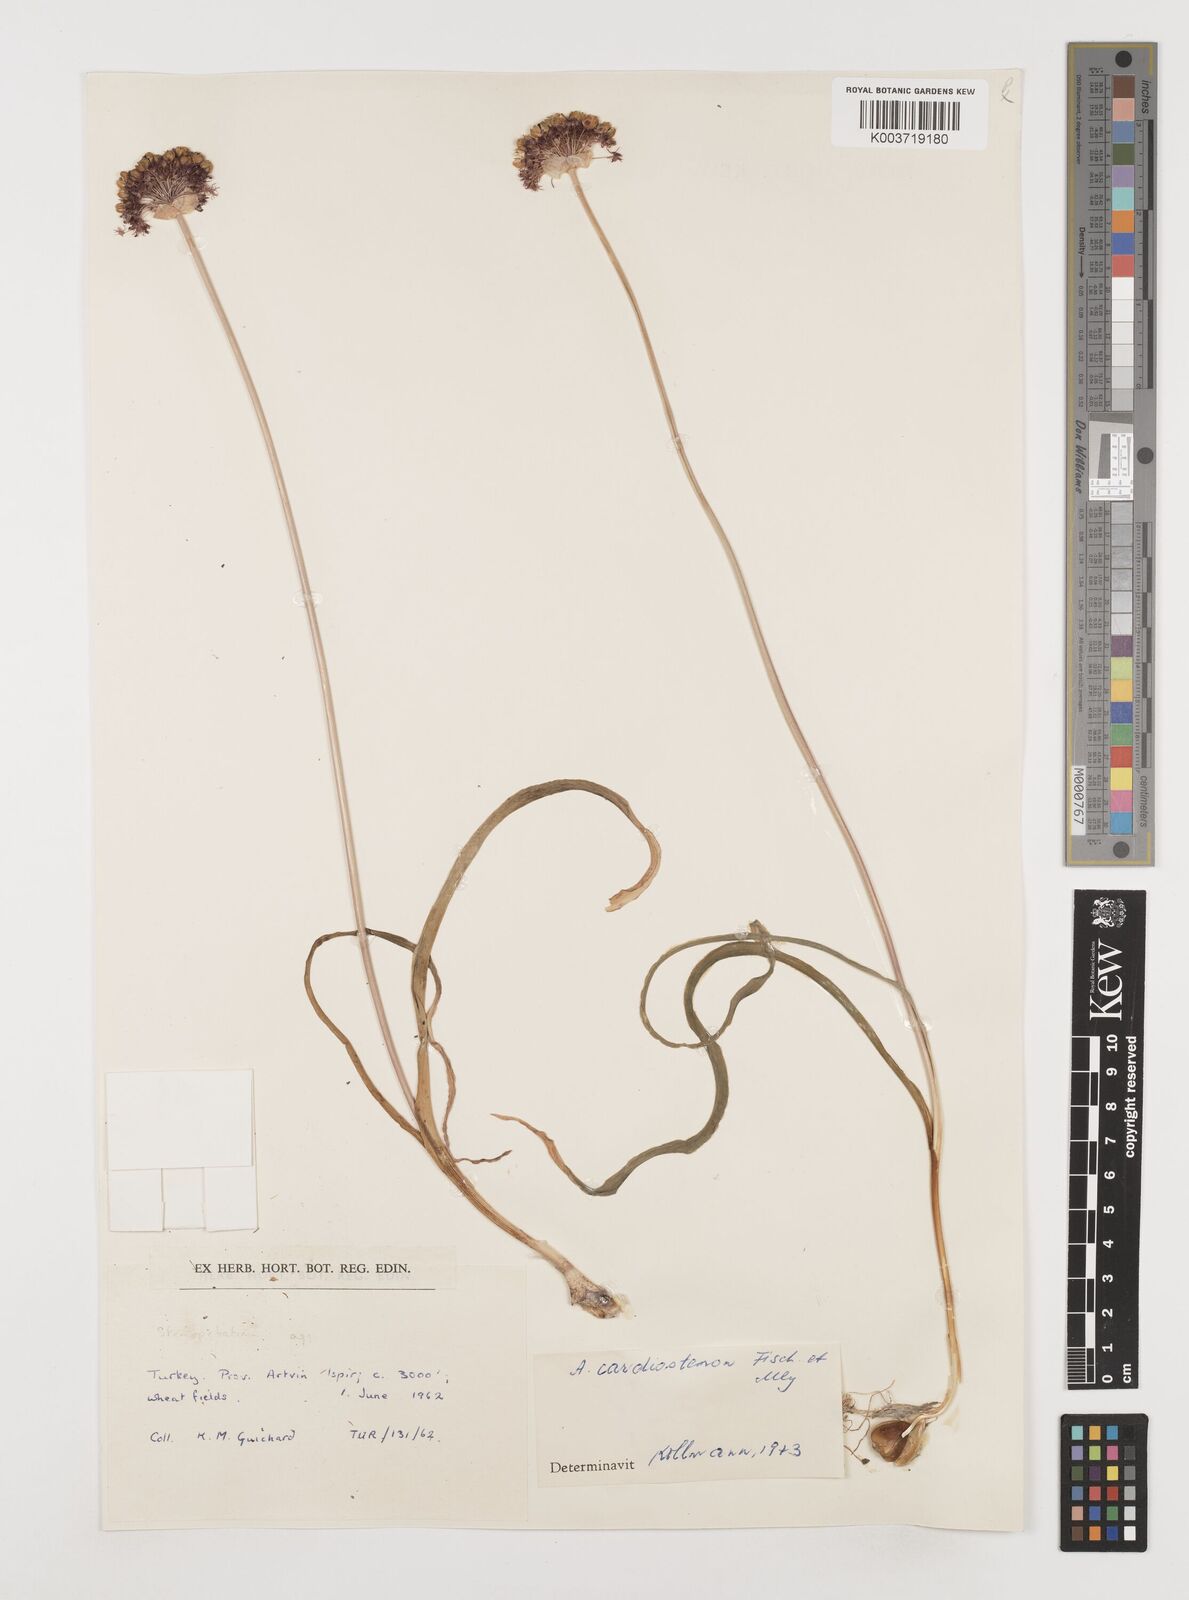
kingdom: Plantae
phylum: Tracheophyta
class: Liliopsida
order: Asparagales
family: Amaryllidaceae
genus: Allium
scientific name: Allium cardiostemon
